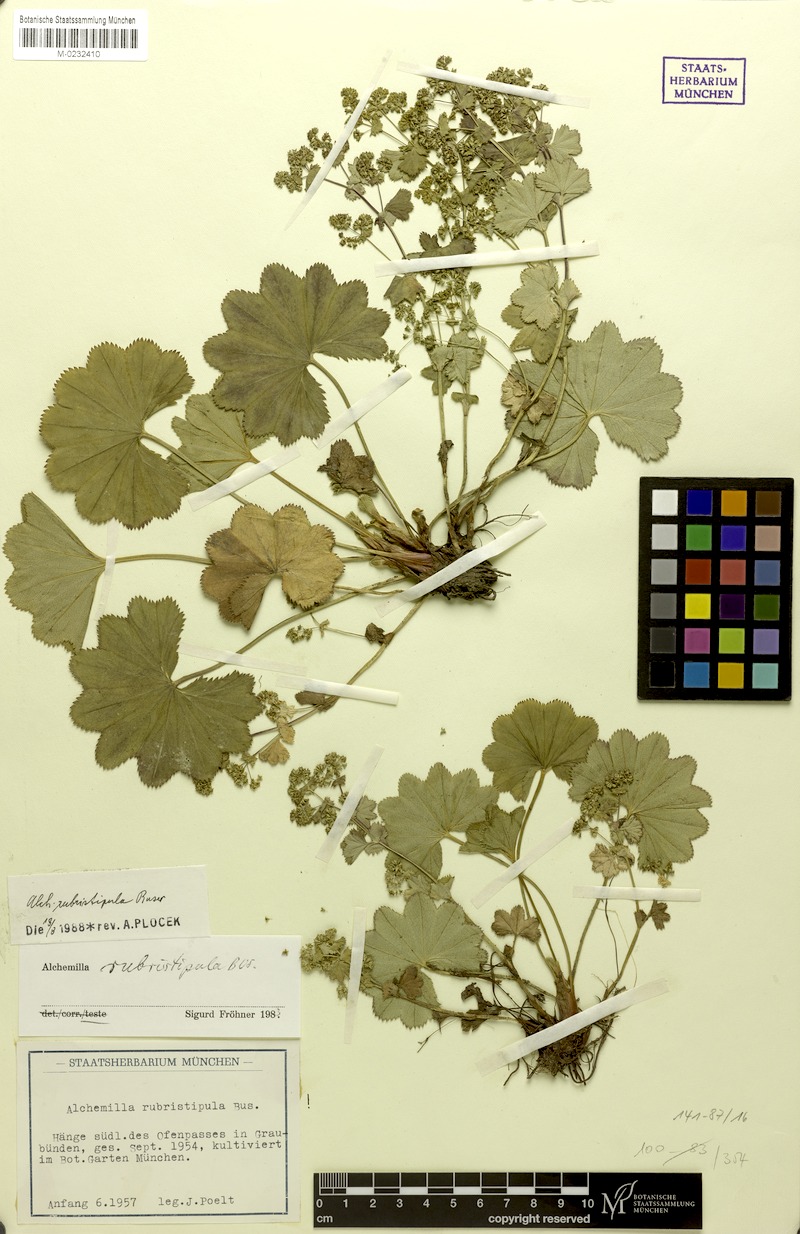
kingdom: Plantae
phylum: Tracheophyta
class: Magnoliopsida
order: Rosales
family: Rosaceae
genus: Alchemilla
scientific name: Alchemilla rubristipula
